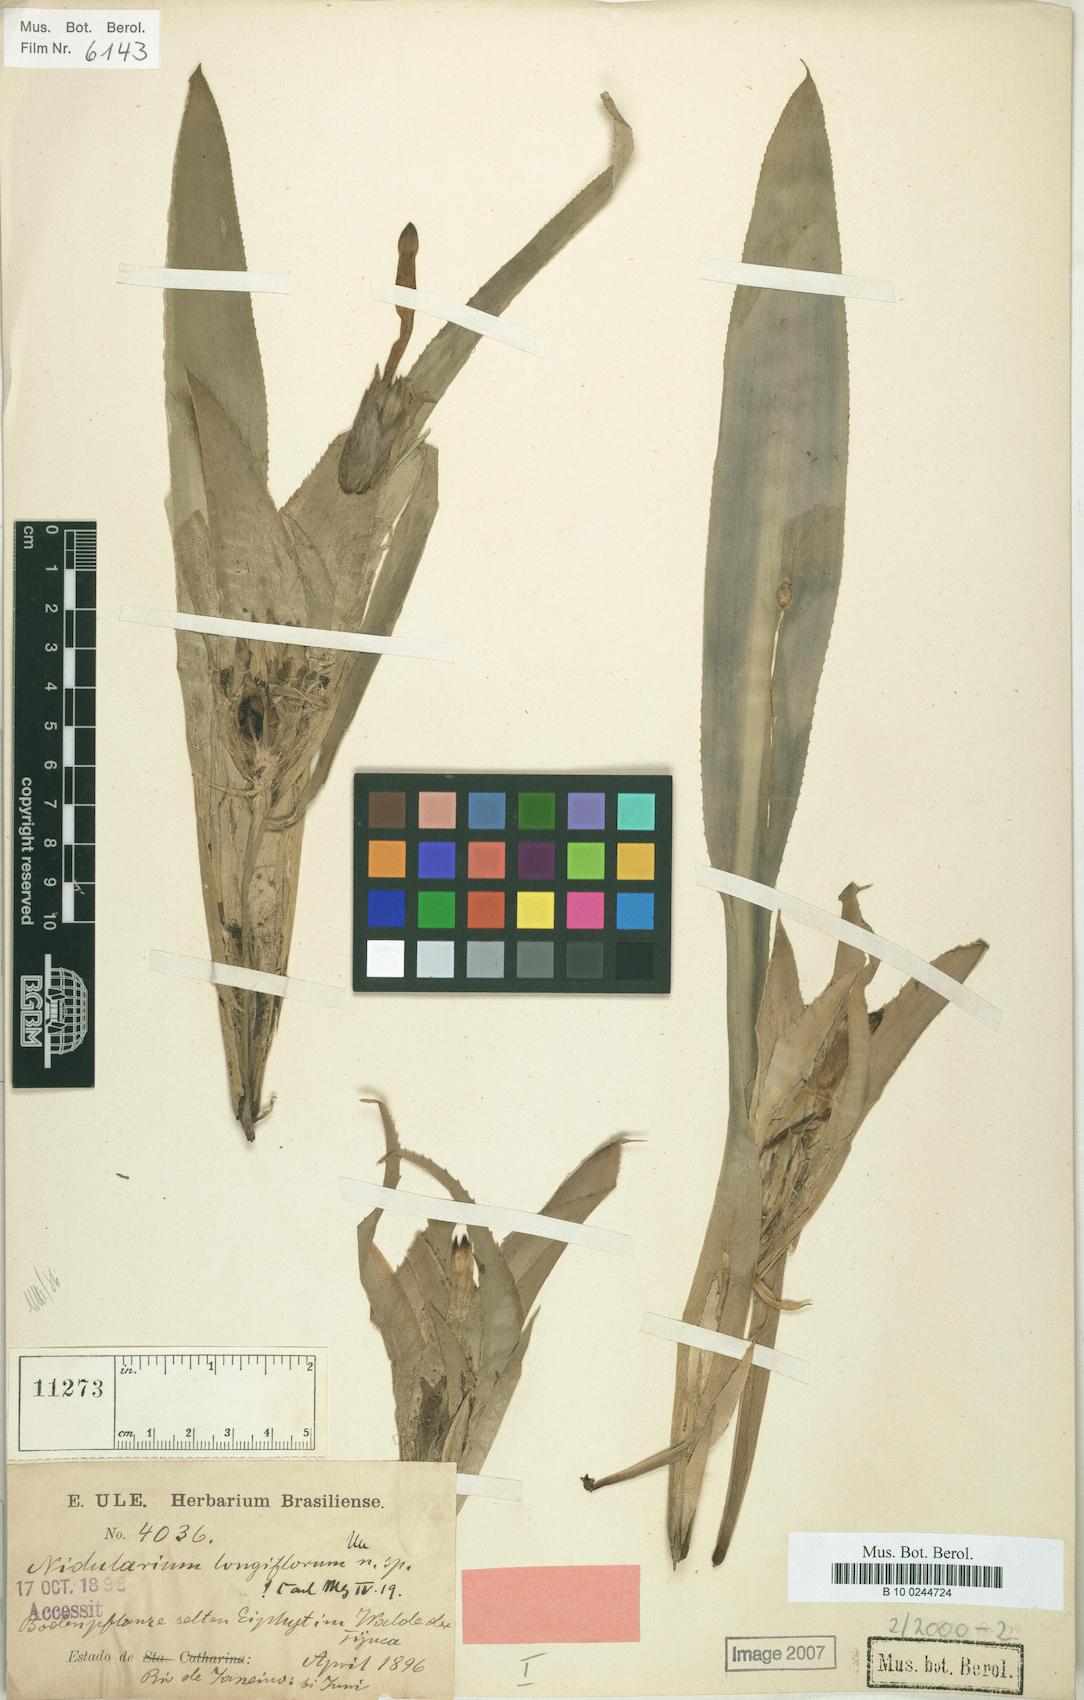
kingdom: Plantae
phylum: Tracheophyta
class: Liliopsida
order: Poales
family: Bromeliaceae
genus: Nidularium
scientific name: Nidularium longiflorum
